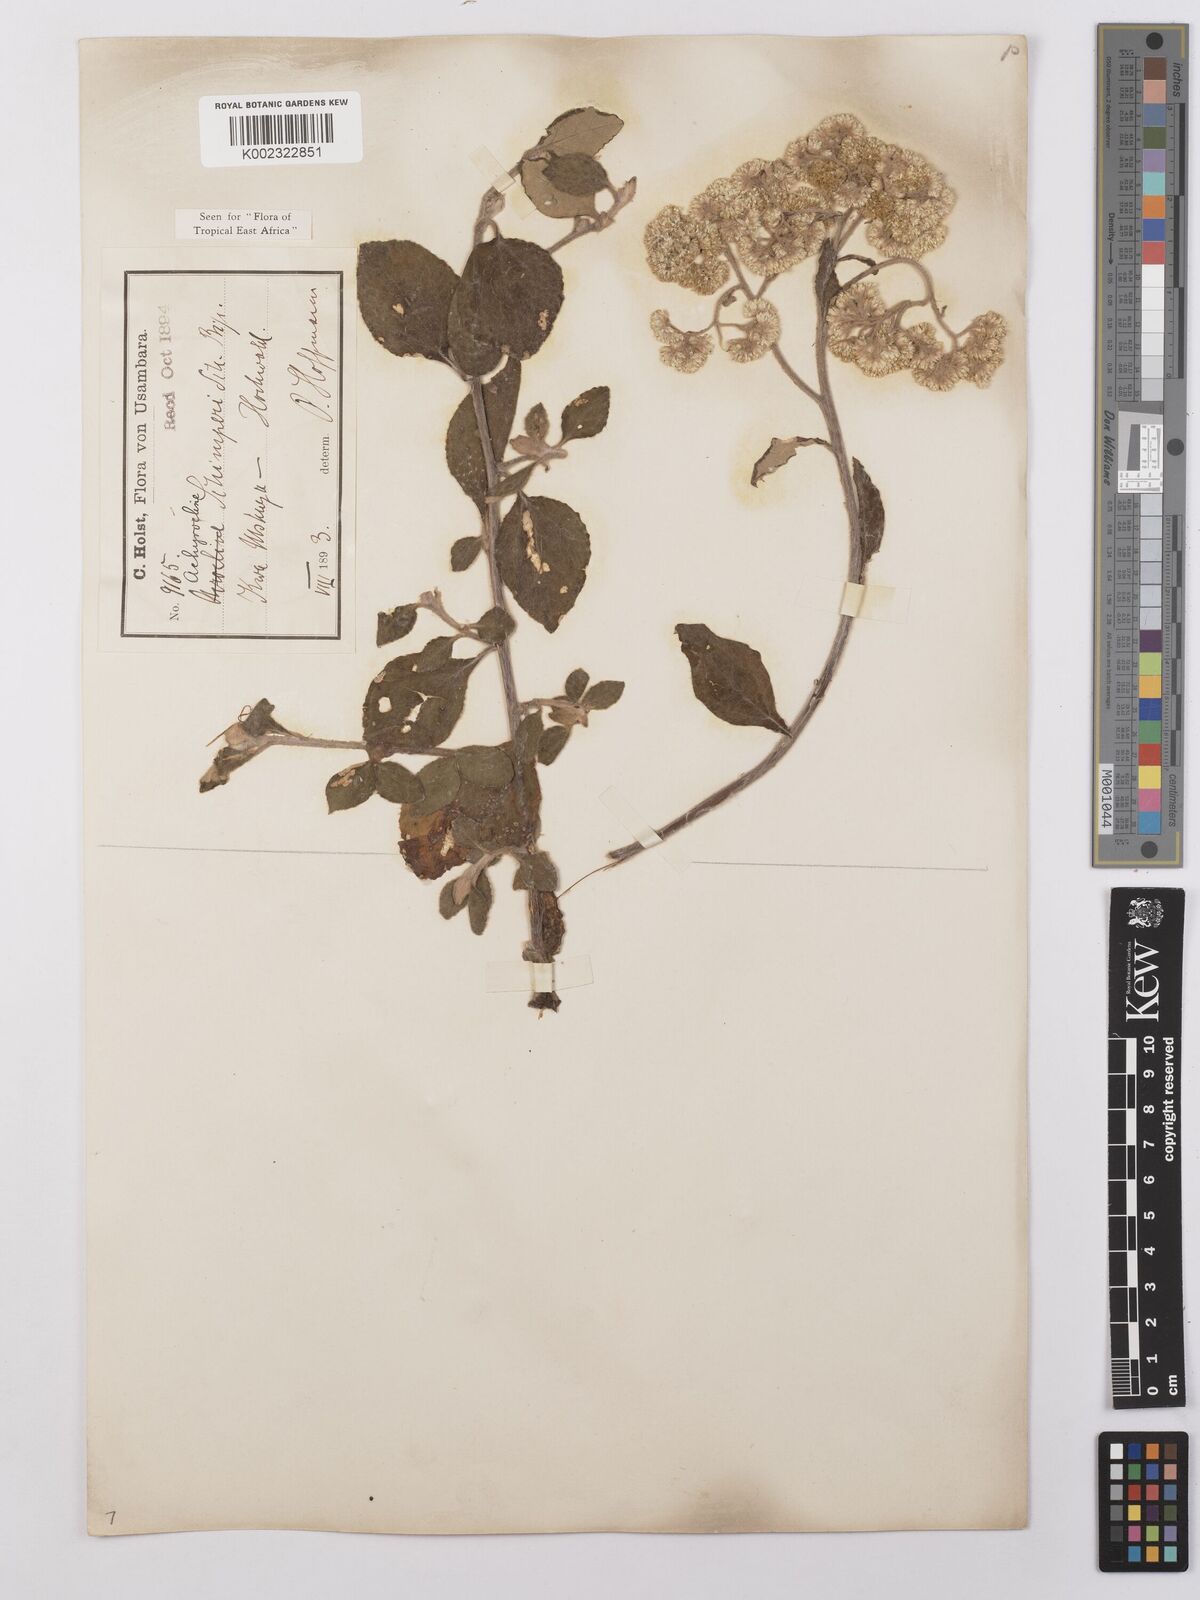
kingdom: Plantae
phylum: Tracheophyta
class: Magnoliopsida
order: Asterales
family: Asteraceae
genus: Helichrysum
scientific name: Helichrysum schimperi
